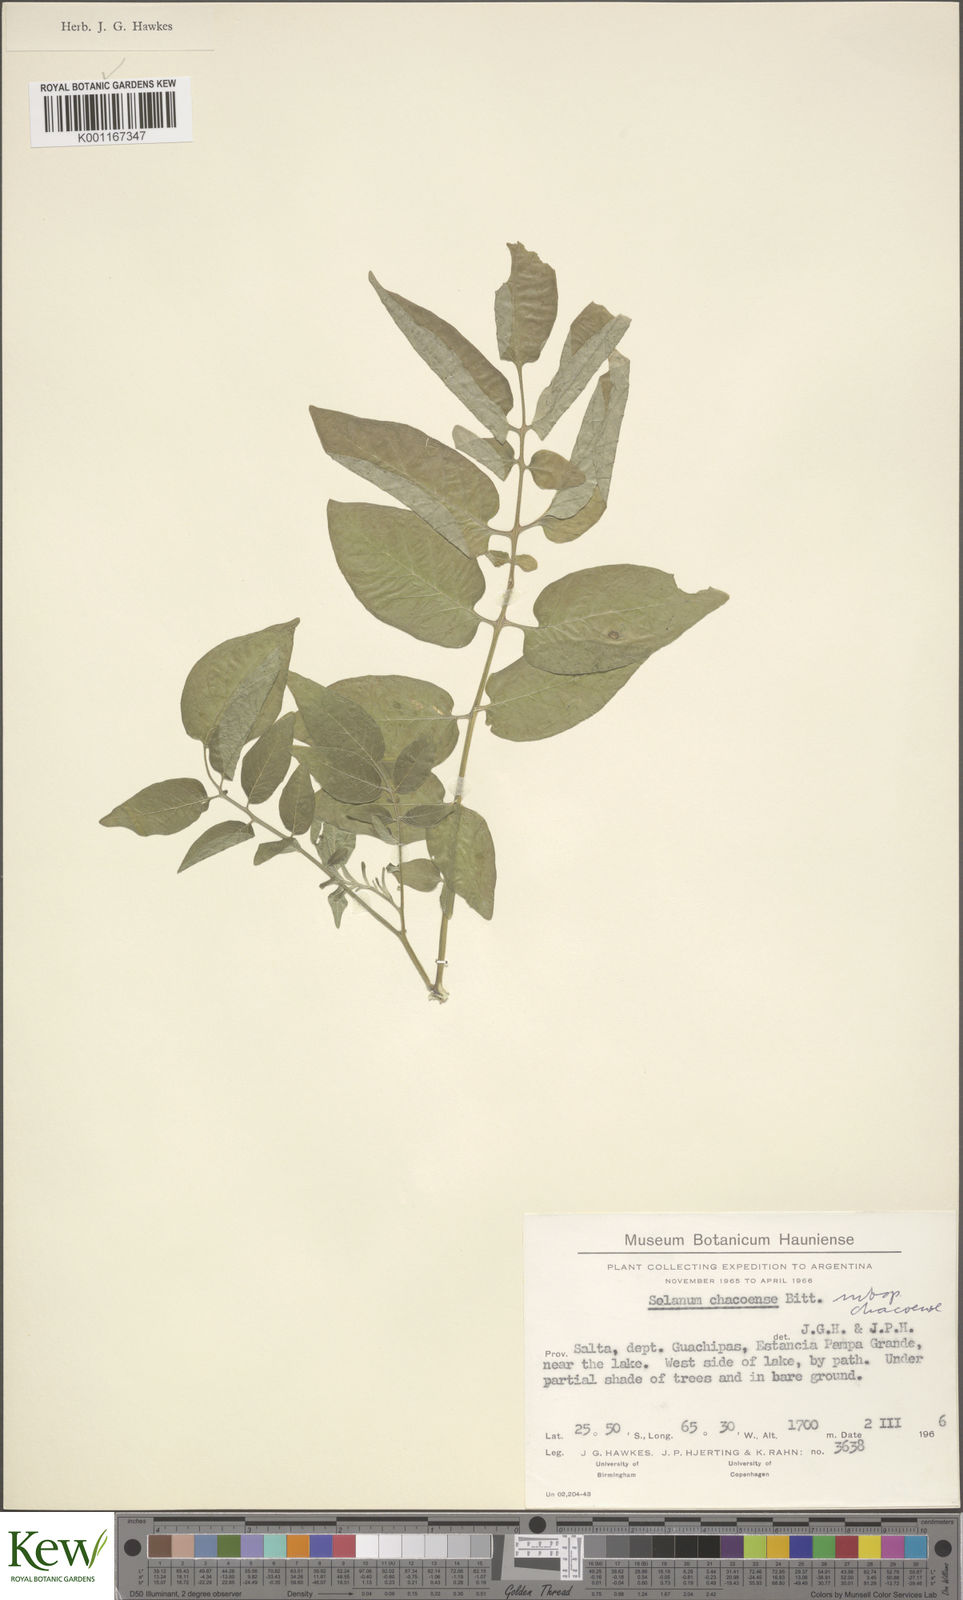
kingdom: Plantae
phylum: Tracheophyta
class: Magnoliopsida
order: Solanales
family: Solanaceae
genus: Solanum
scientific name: Solanum chacoense
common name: Chaco potato
